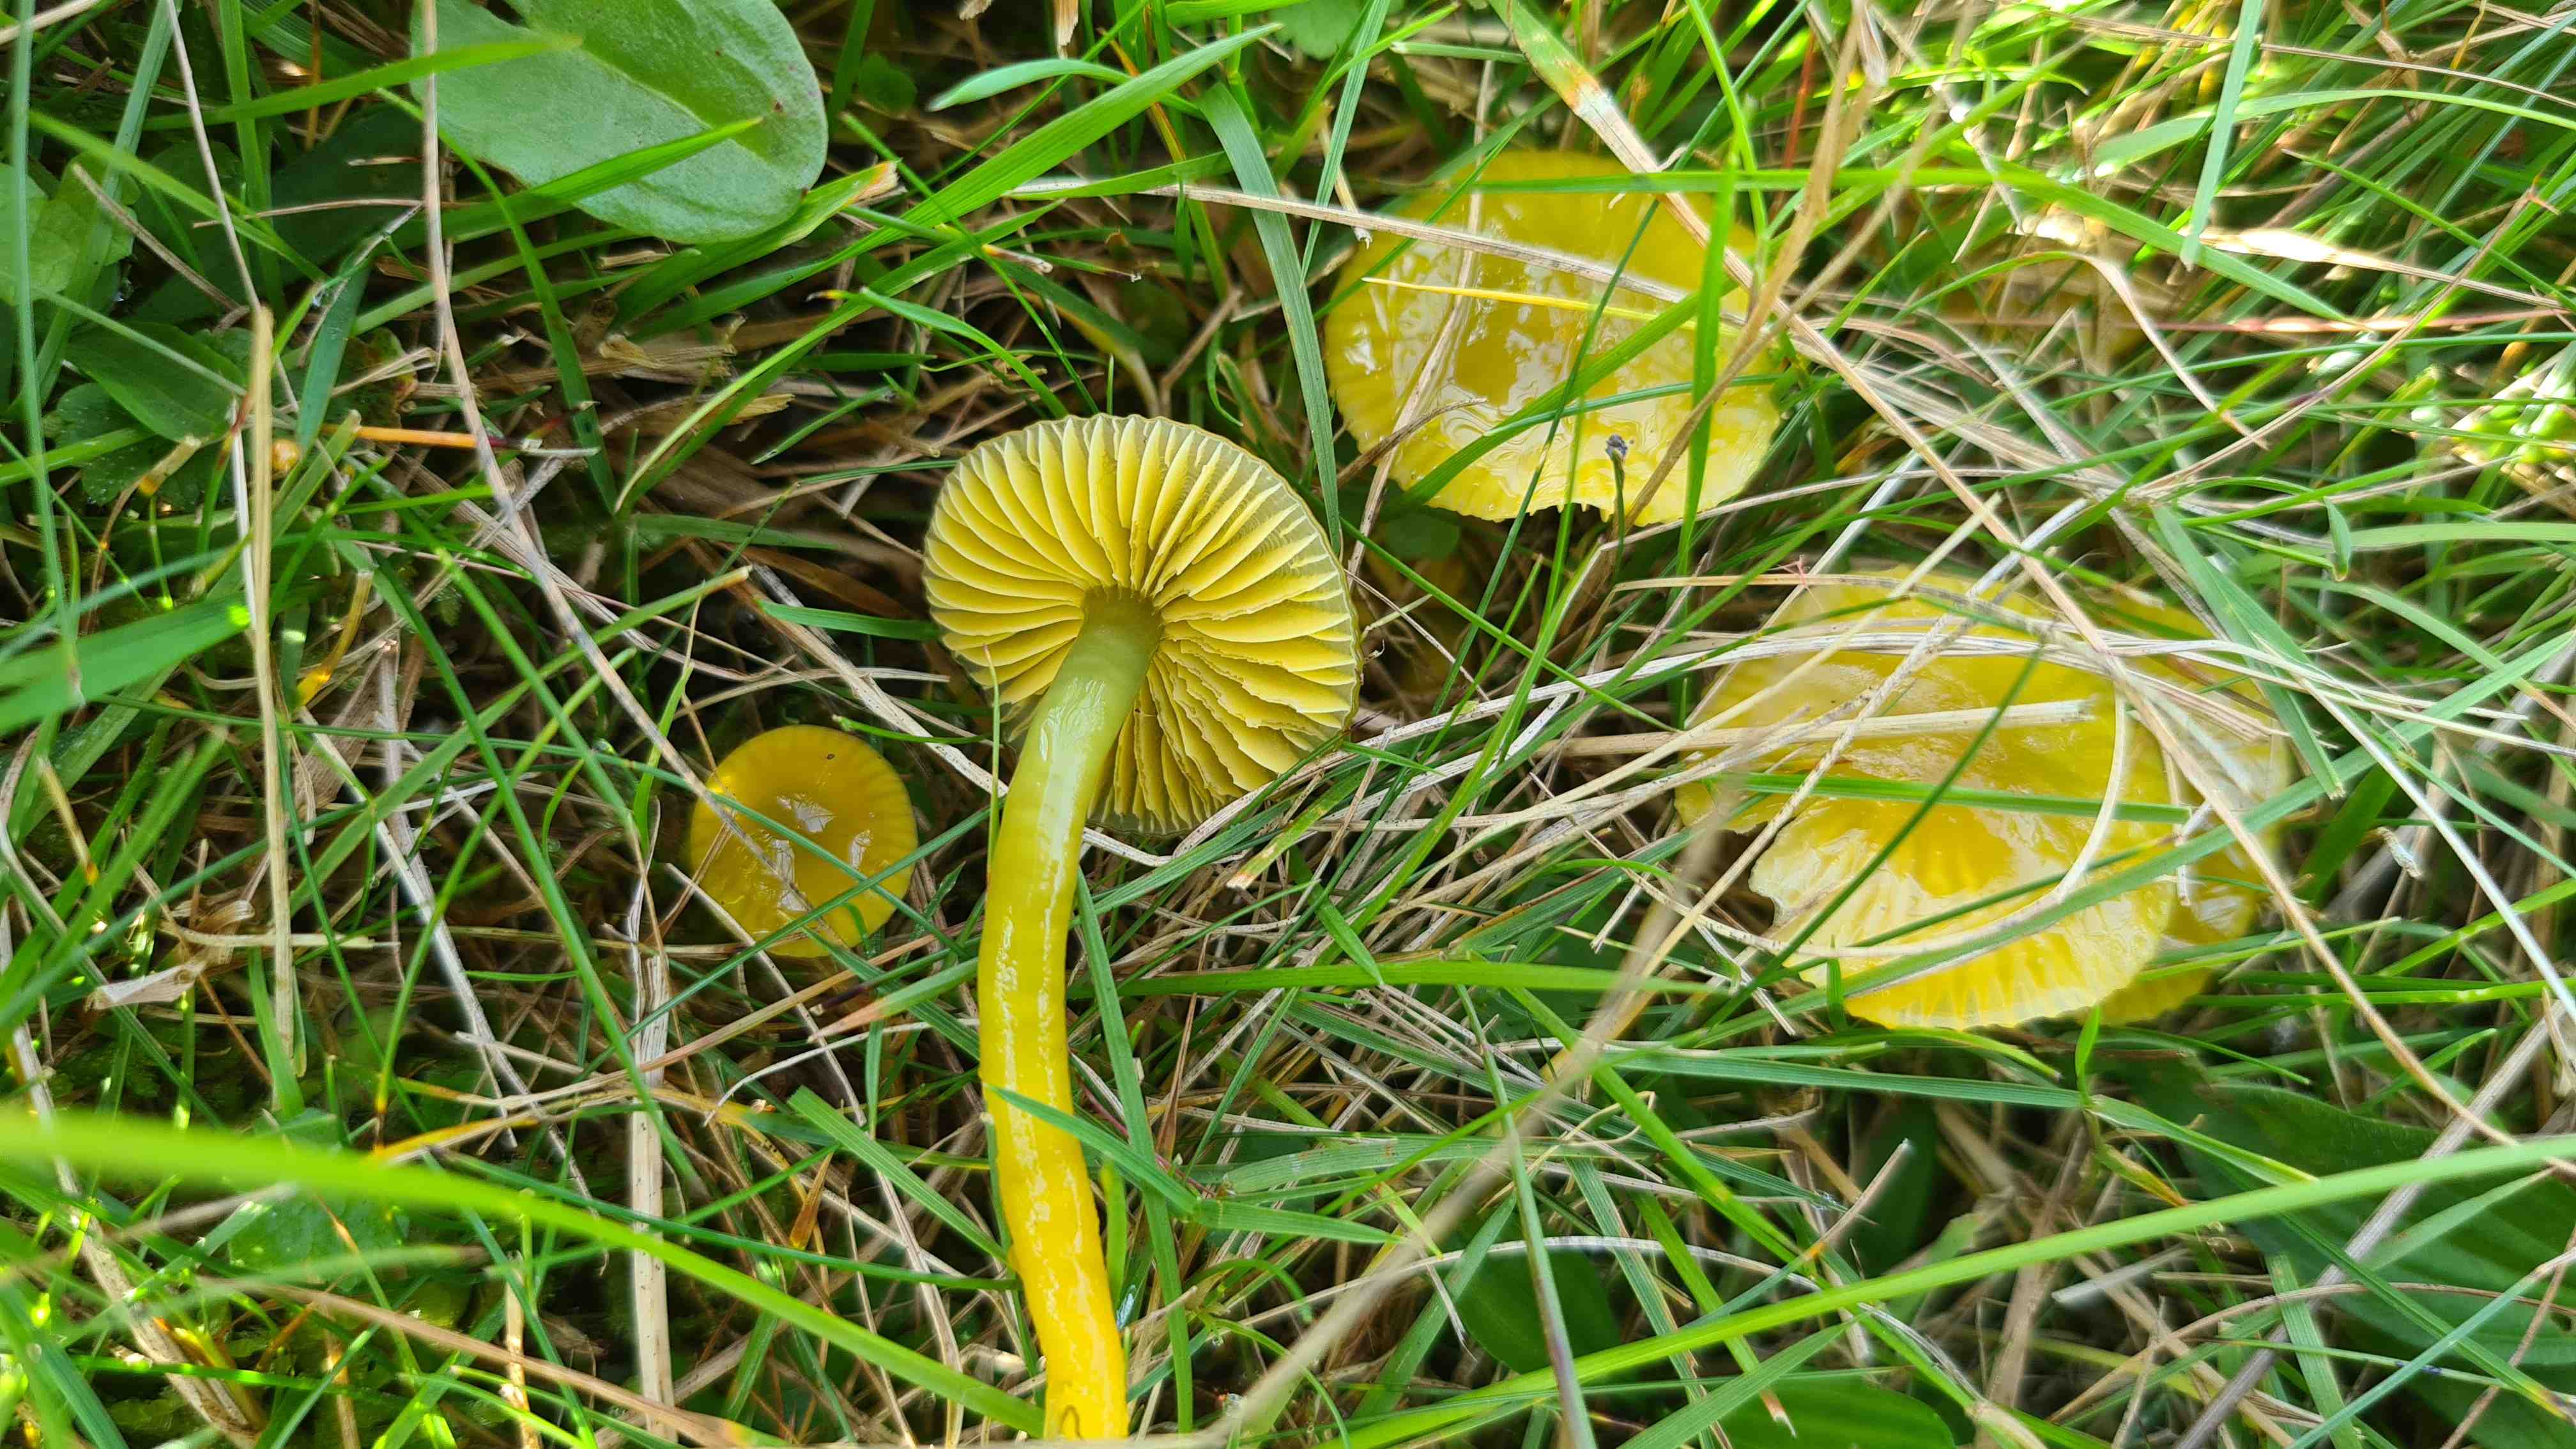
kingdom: Fungi
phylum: Basidiomycota
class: Agaricomycetes
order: Agaricales
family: Hygrophoraceae
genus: Gliophorus
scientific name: Gliophorus psittacinus
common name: papegøje-vokshat
